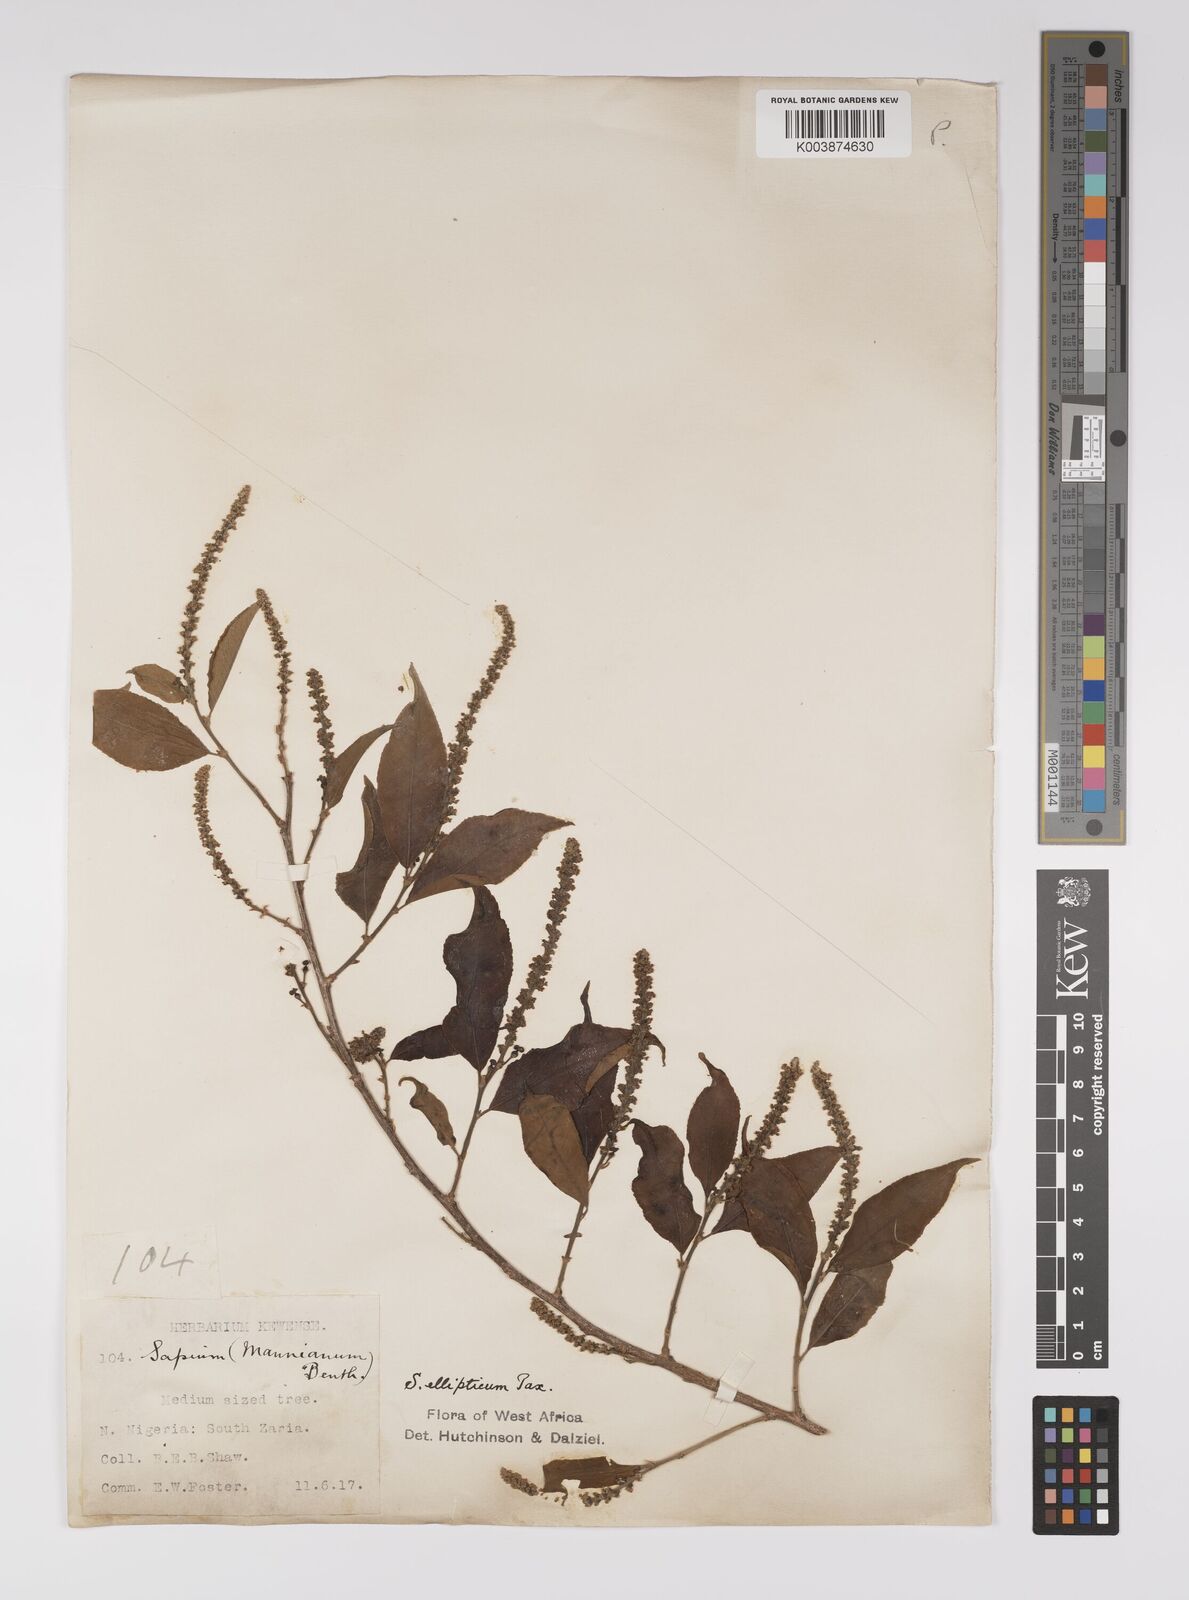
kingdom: Plantae
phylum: Tracheophyta
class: Magnoliopsida
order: Malpighiales
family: Euphorbiaceae
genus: Shirakiopsis
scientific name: Shirakiopsis elliptica
